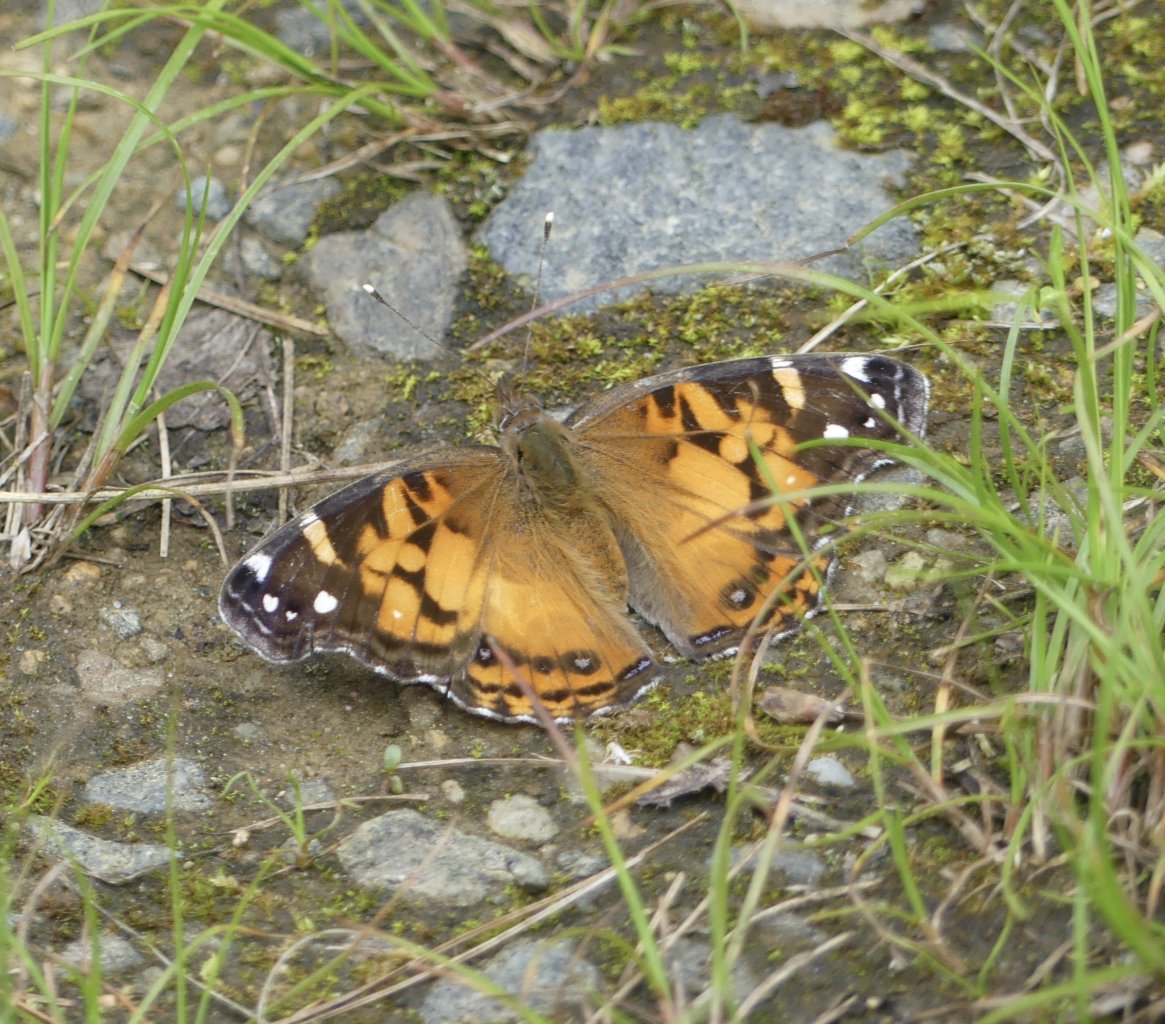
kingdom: Animalia
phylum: Arthropoda
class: Insecta
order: Lepidoptera
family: Nymphalidae
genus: Vanessa
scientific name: Vanessa virginiensis
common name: American Lady
